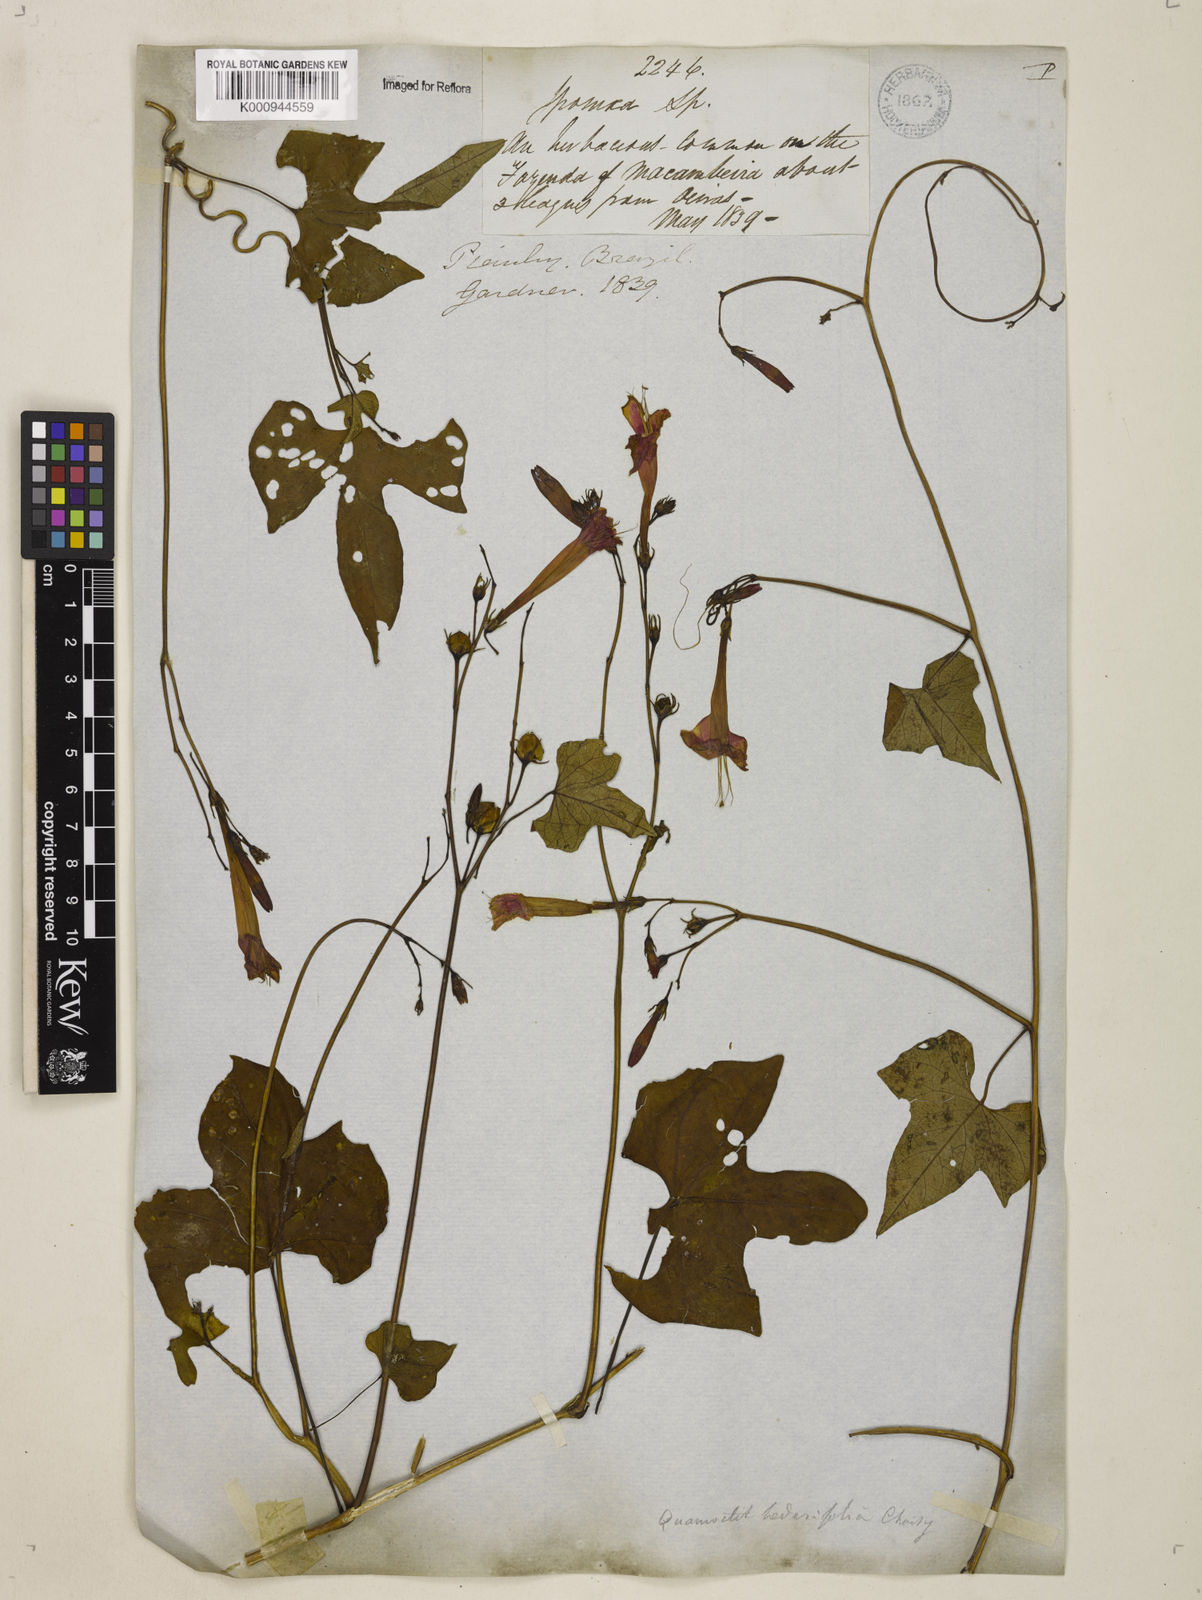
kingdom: Plantae
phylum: Tracheophyta
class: Magnoliopsida
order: Solanales
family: Convolvulaceae
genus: Ipomoea
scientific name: Ipomoea hederifolia
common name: Ivy-leaf morning-glory
